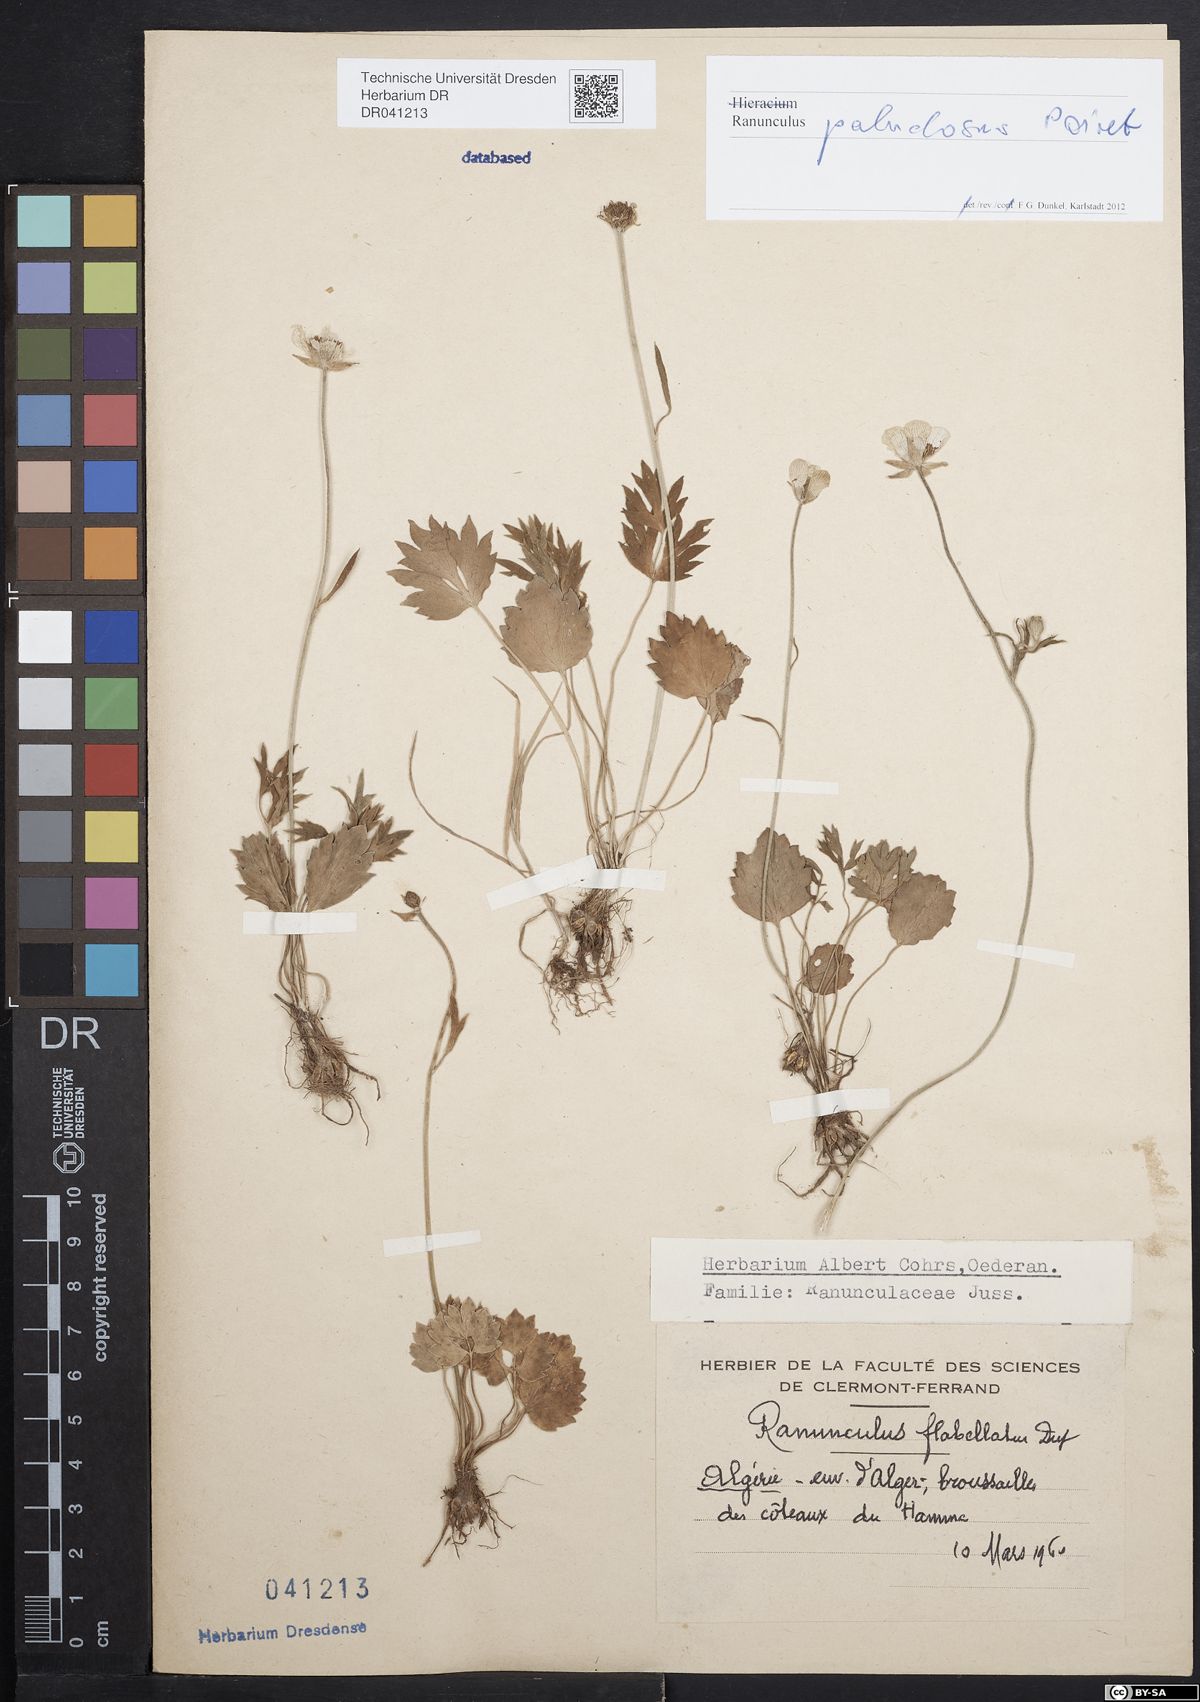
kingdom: Plantae
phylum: Tracheophyta
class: Magnoliopsida
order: Ranunculales
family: Ranunculaceae
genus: Ranunculus
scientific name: Ranunculus paludosus
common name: Jersey buttercup
